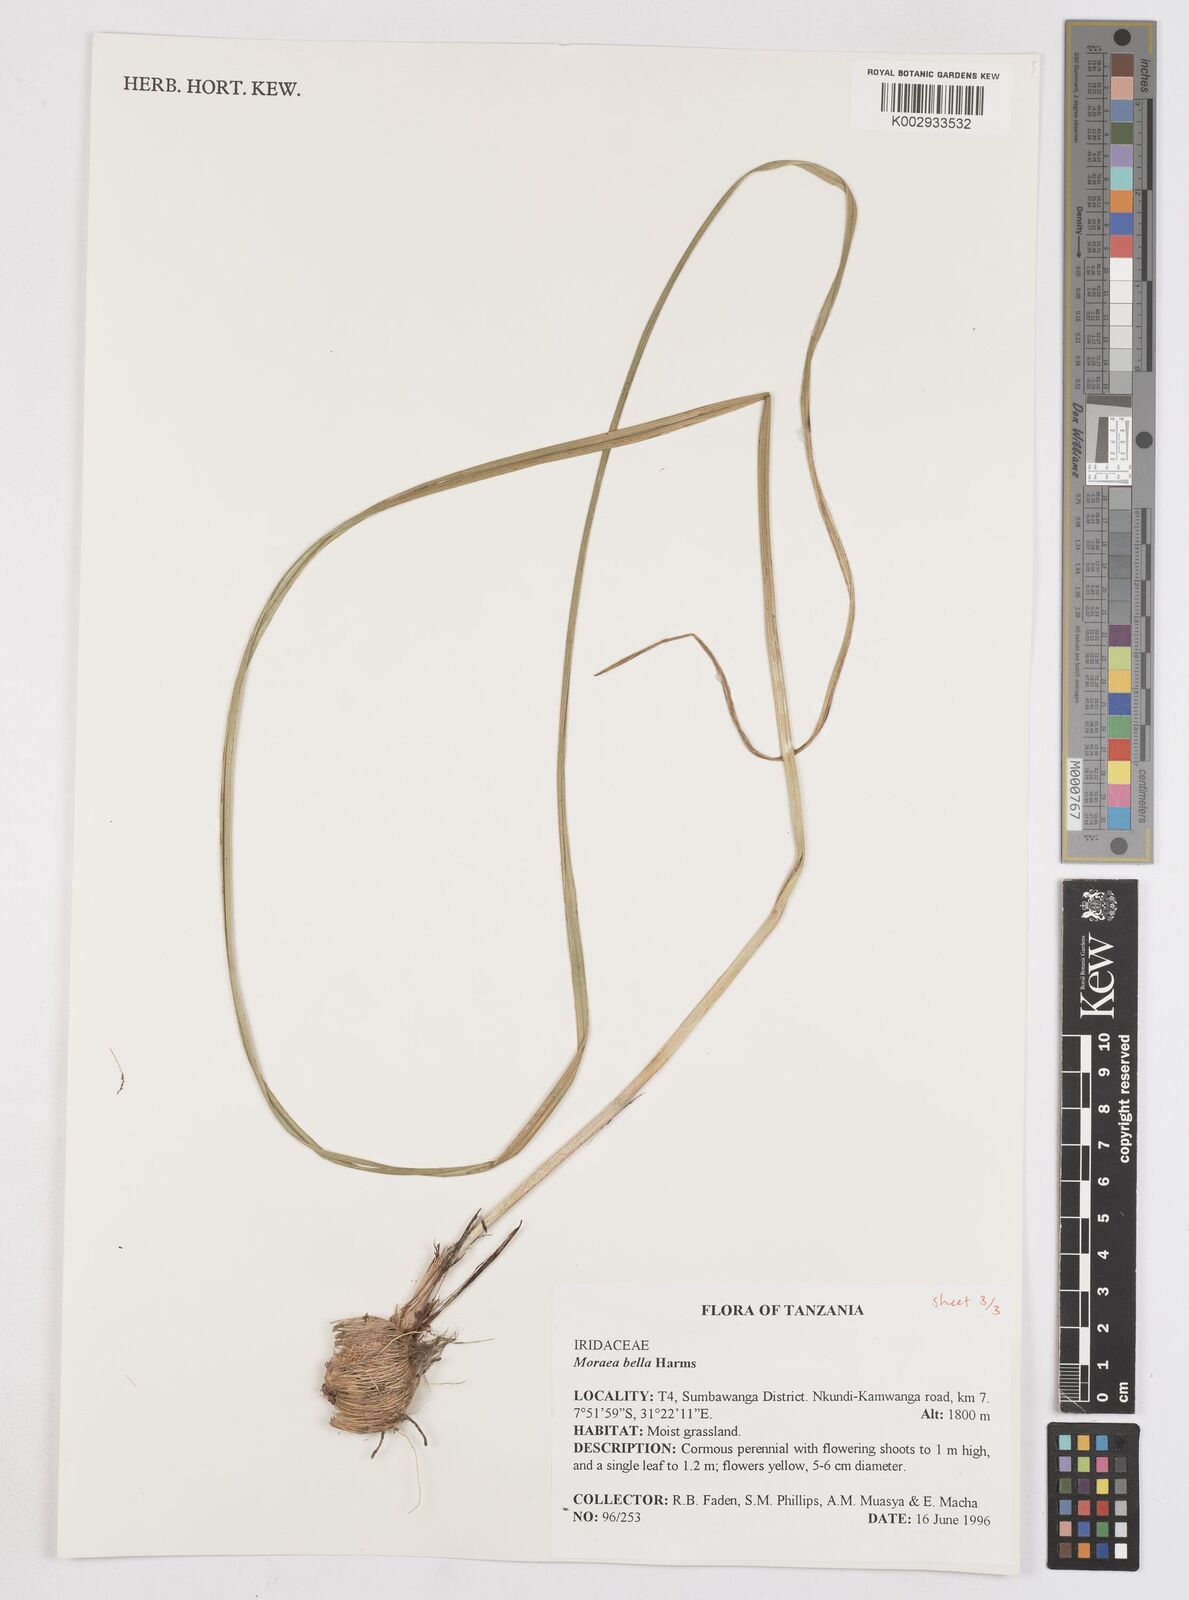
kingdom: Plantae
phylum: Tracheophyta
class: Liliopsida
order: Asparagales
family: Iridaceae
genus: Moraea
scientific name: Moraea bella
